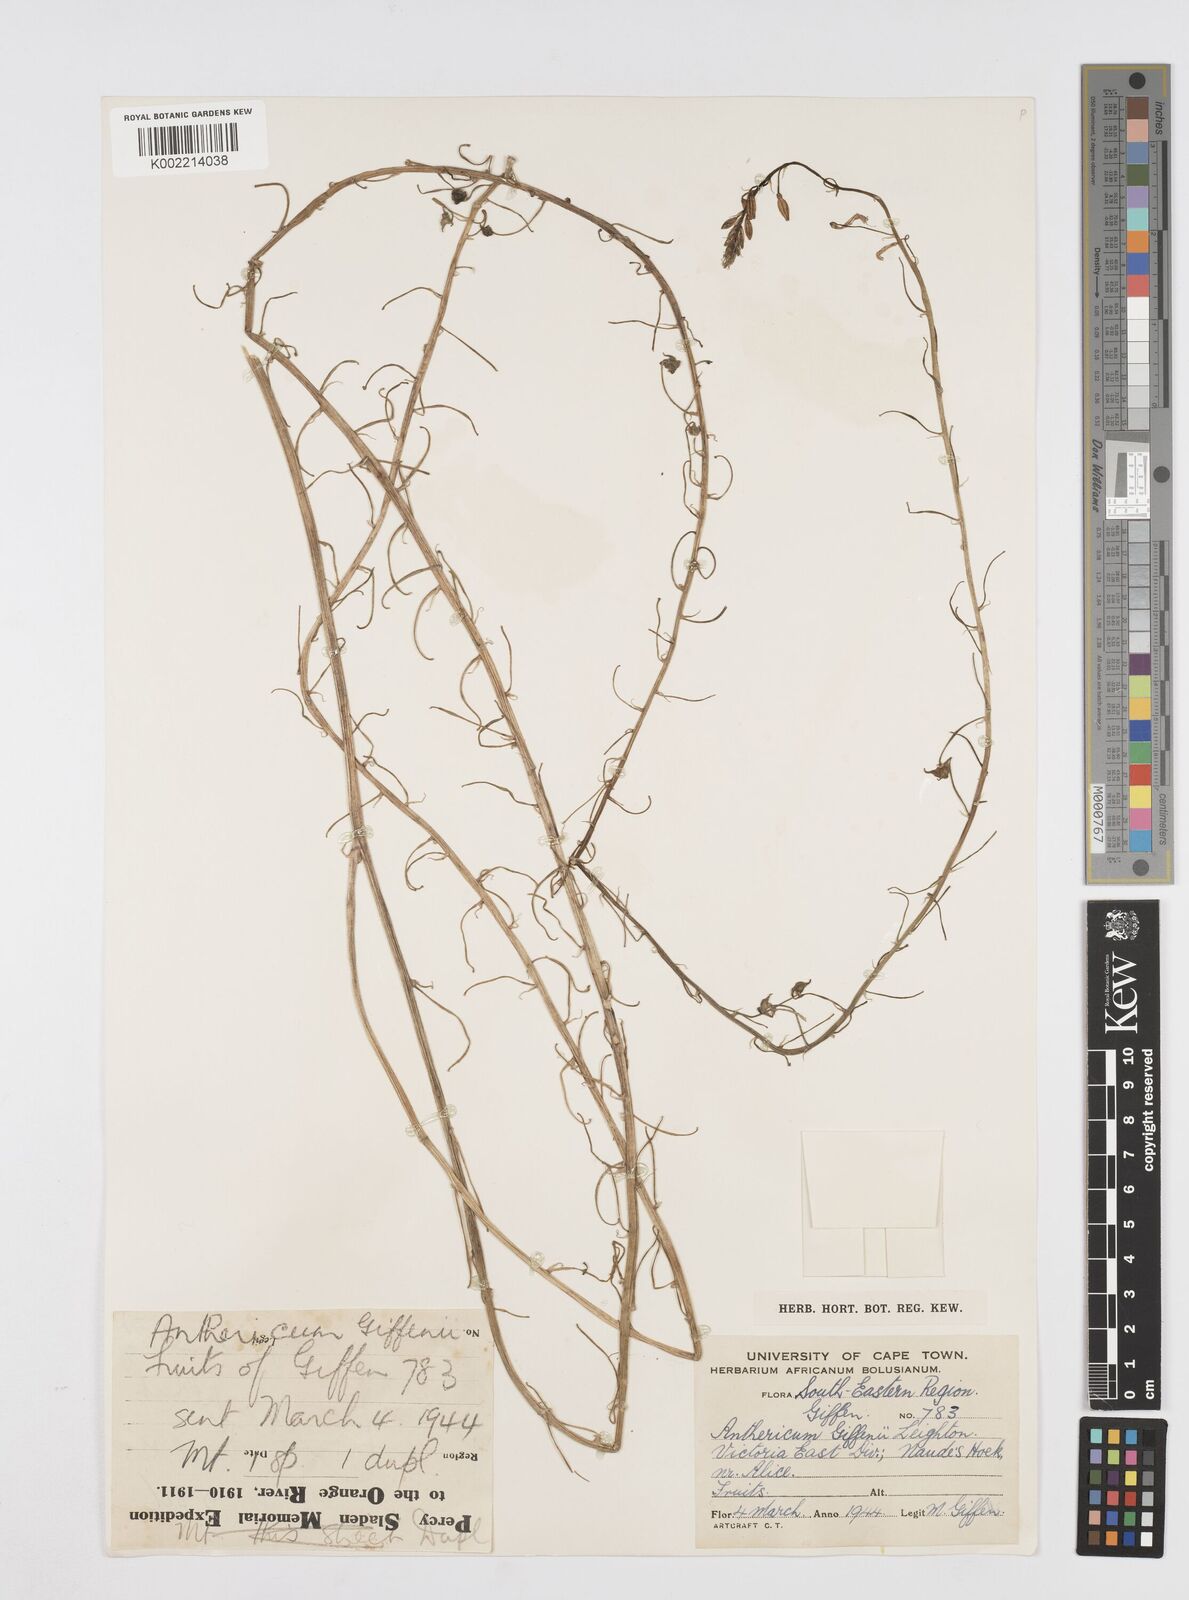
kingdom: Plantae
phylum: Tracheophyta
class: Liliopsida
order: Asparagales
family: Asphodelaceae
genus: Trachyandra
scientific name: Trachyandra giffenii
